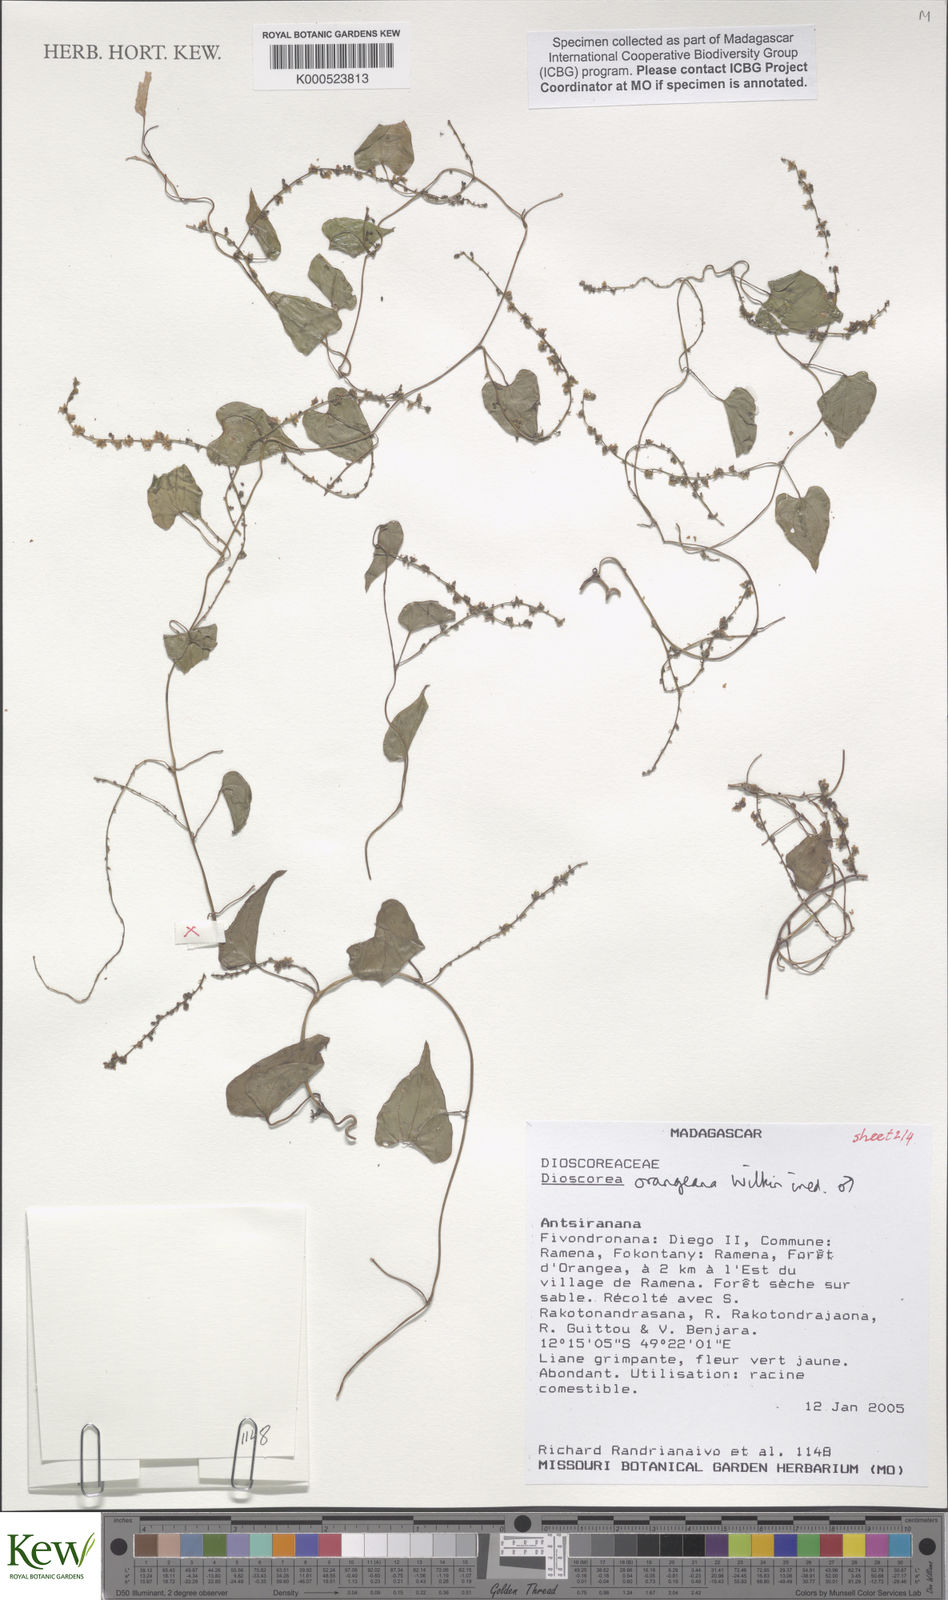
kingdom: Plantae
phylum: Tracheophyta
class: Liliopsida
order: Dioscoreales
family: Dioscoreaceae
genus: Dioscorea
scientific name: Dioscorea orangeana
